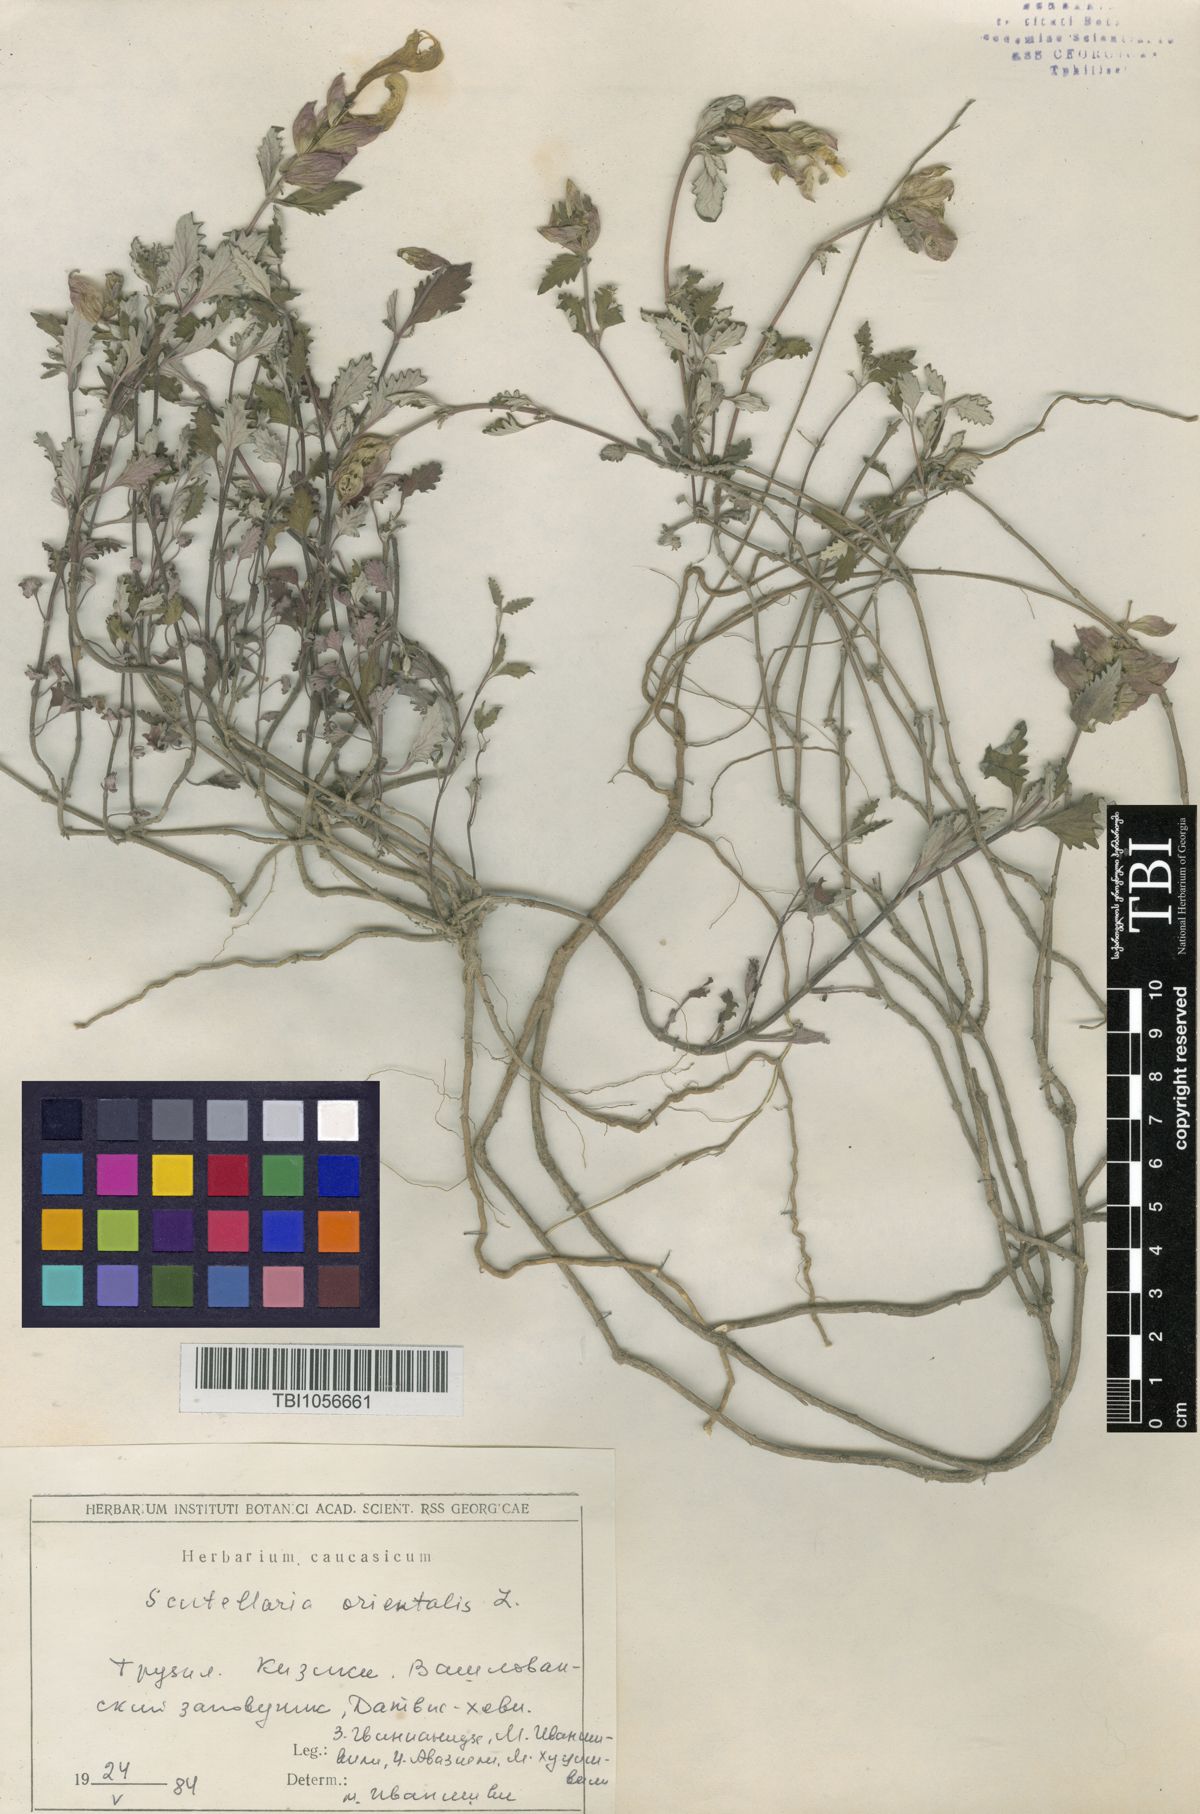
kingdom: Plantae
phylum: Tracheophyta
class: Magnoliopsida
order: Lamiales
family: Lamiaceae
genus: Scutellaria
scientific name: Scutellaria orientalis
